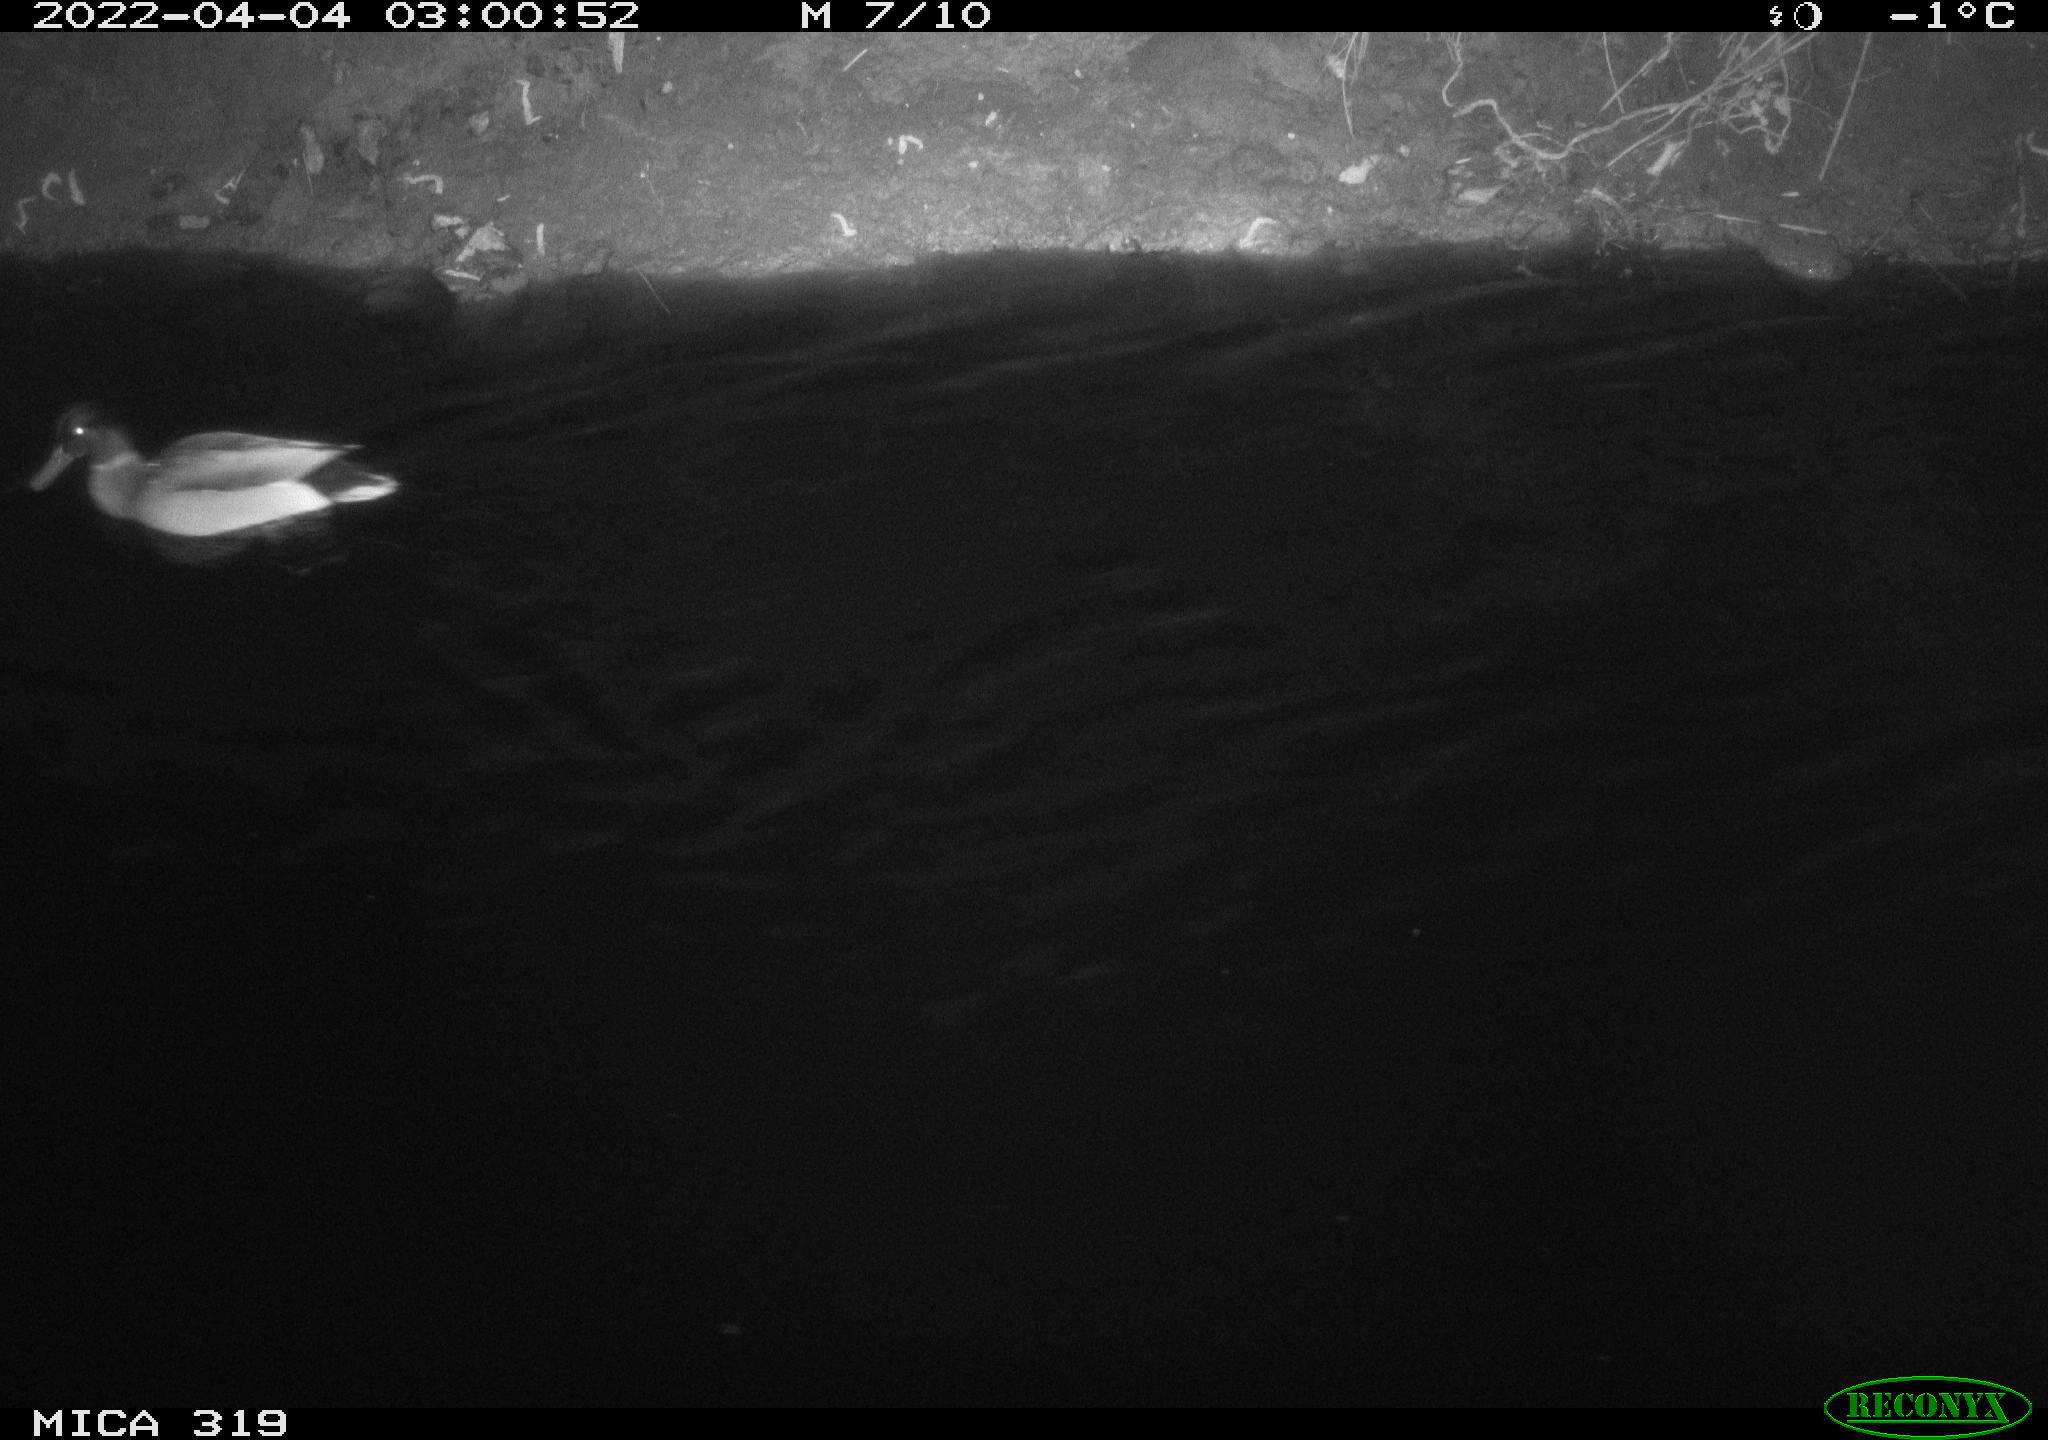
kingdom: Animalia
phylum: Chordata
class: Aves
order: Anseriformes
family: Anatidae
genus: Anas
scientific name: Anas platyrhynchos
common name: Mallard
